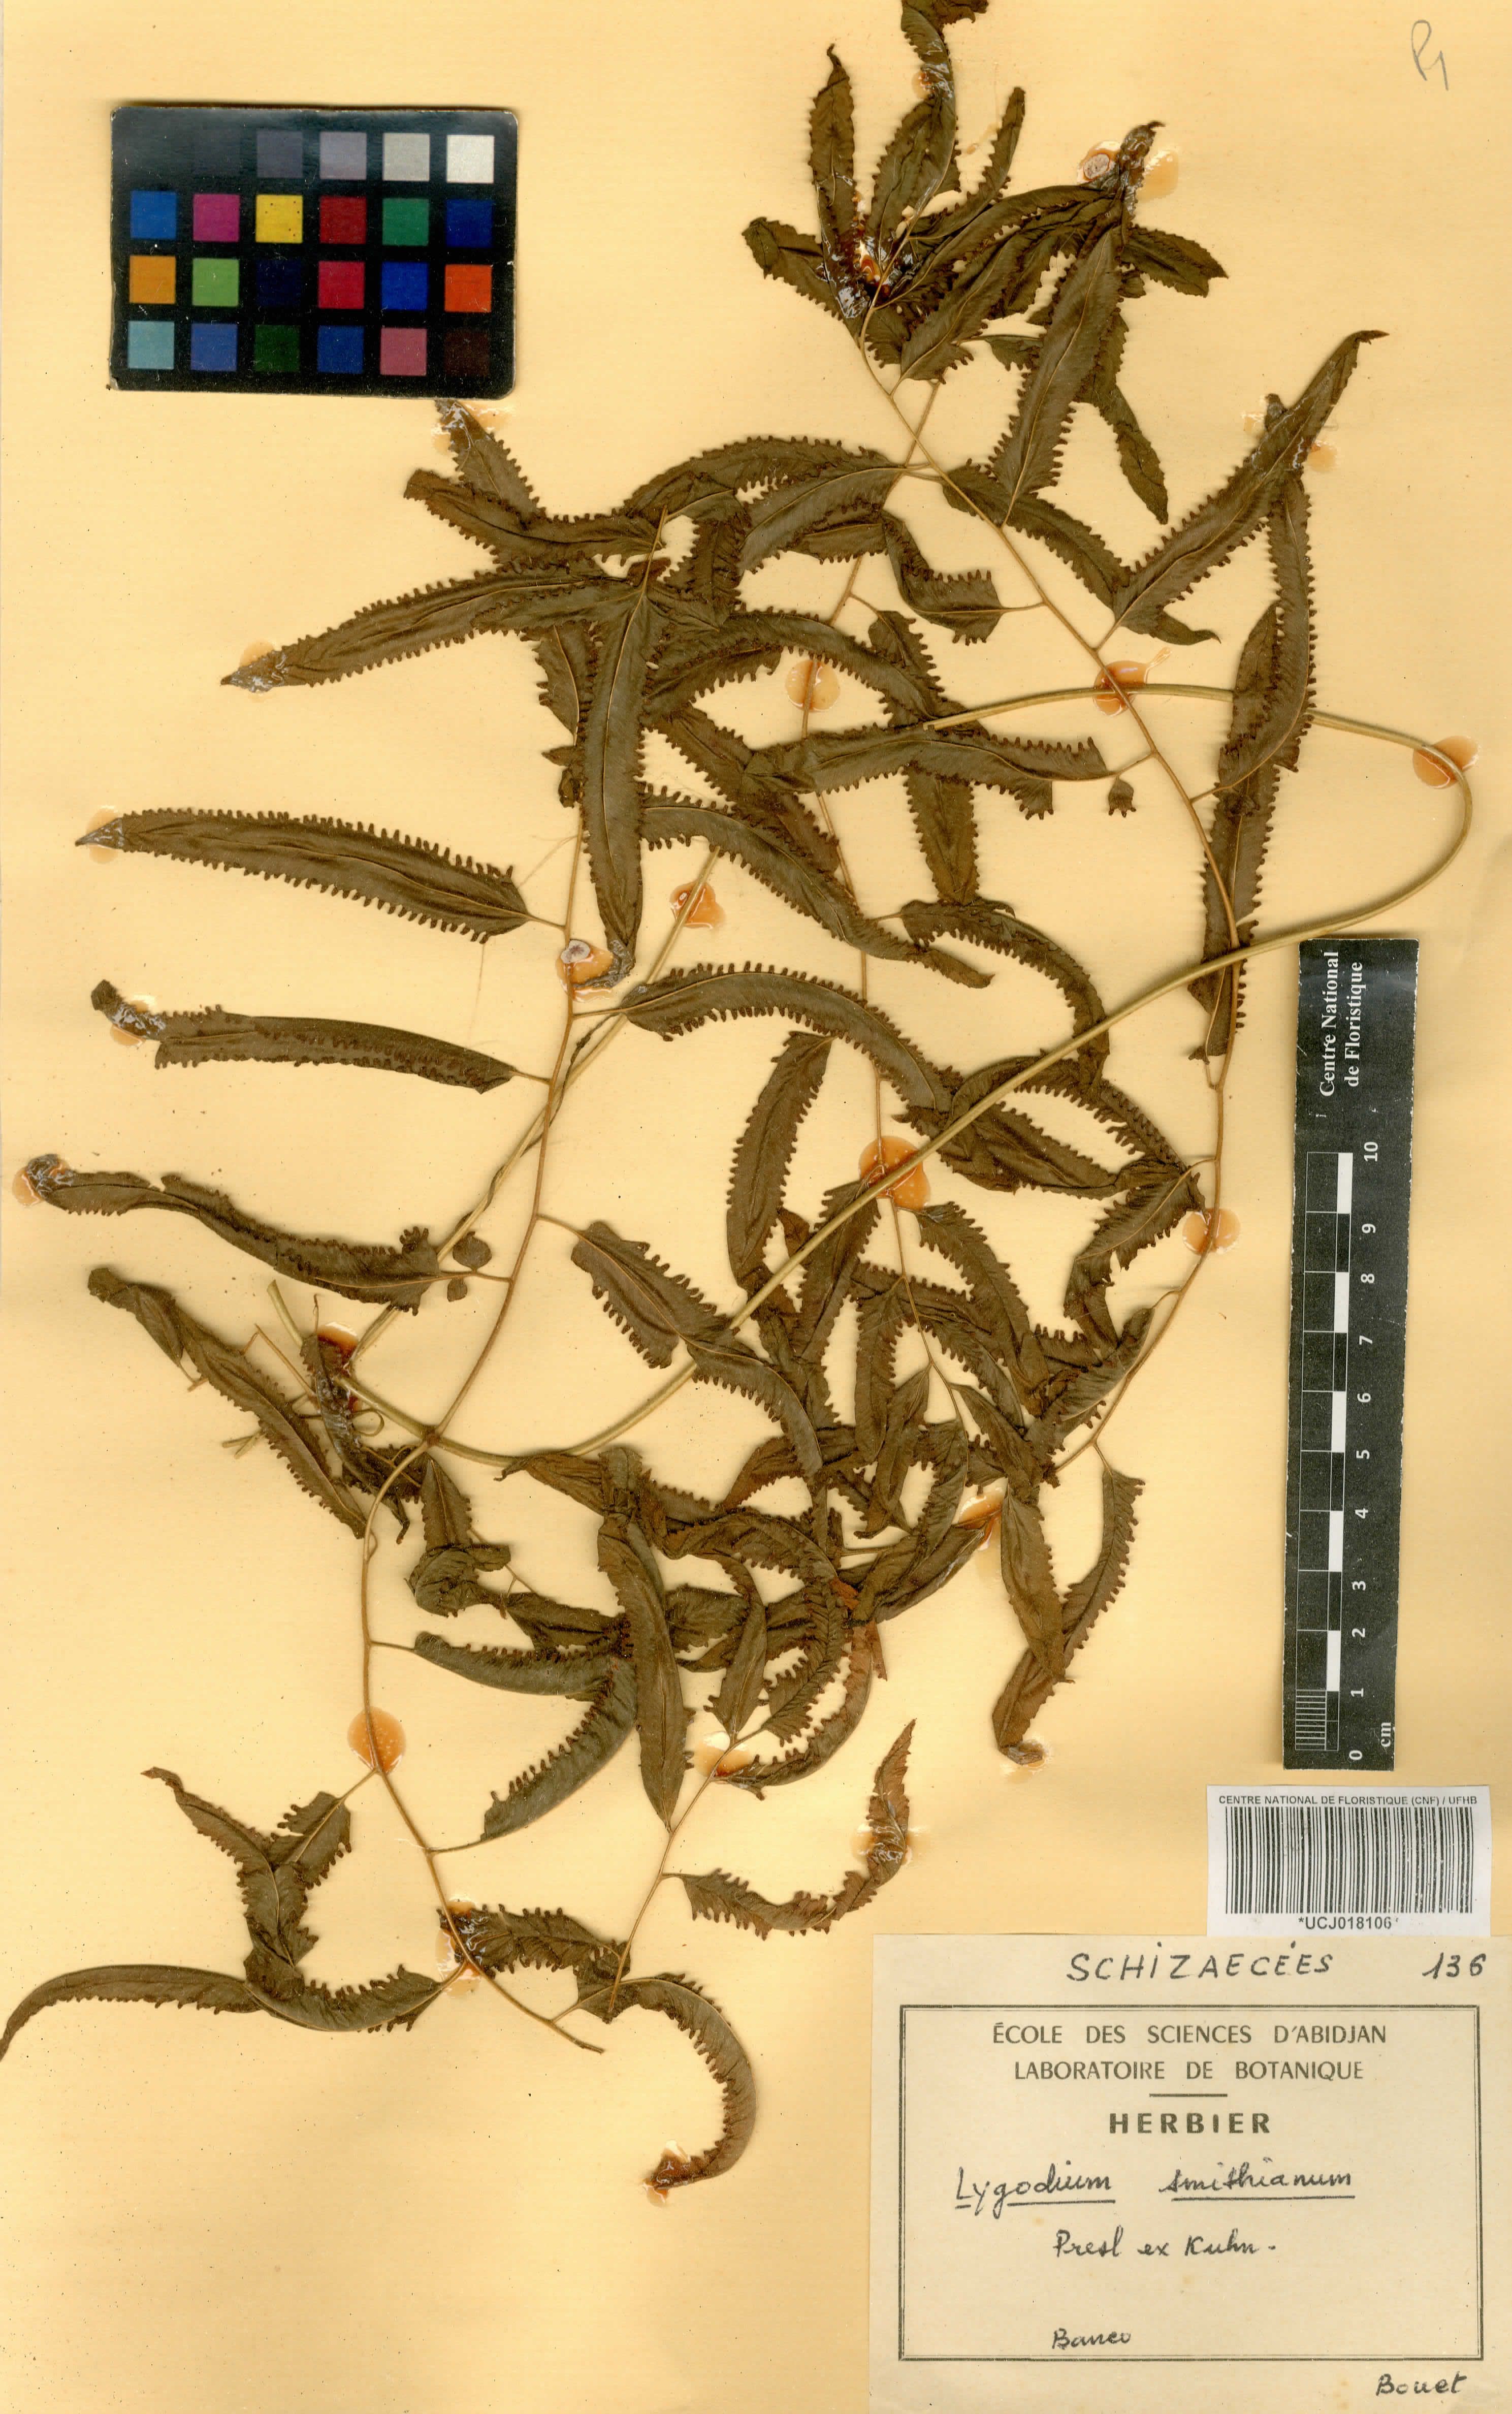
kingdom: Plantae
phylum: Tracheophyta
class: Polypodiopsida
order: Schizaeales
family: Lygodiaceae
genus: Lygodium
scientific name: Lygodium smithianum
